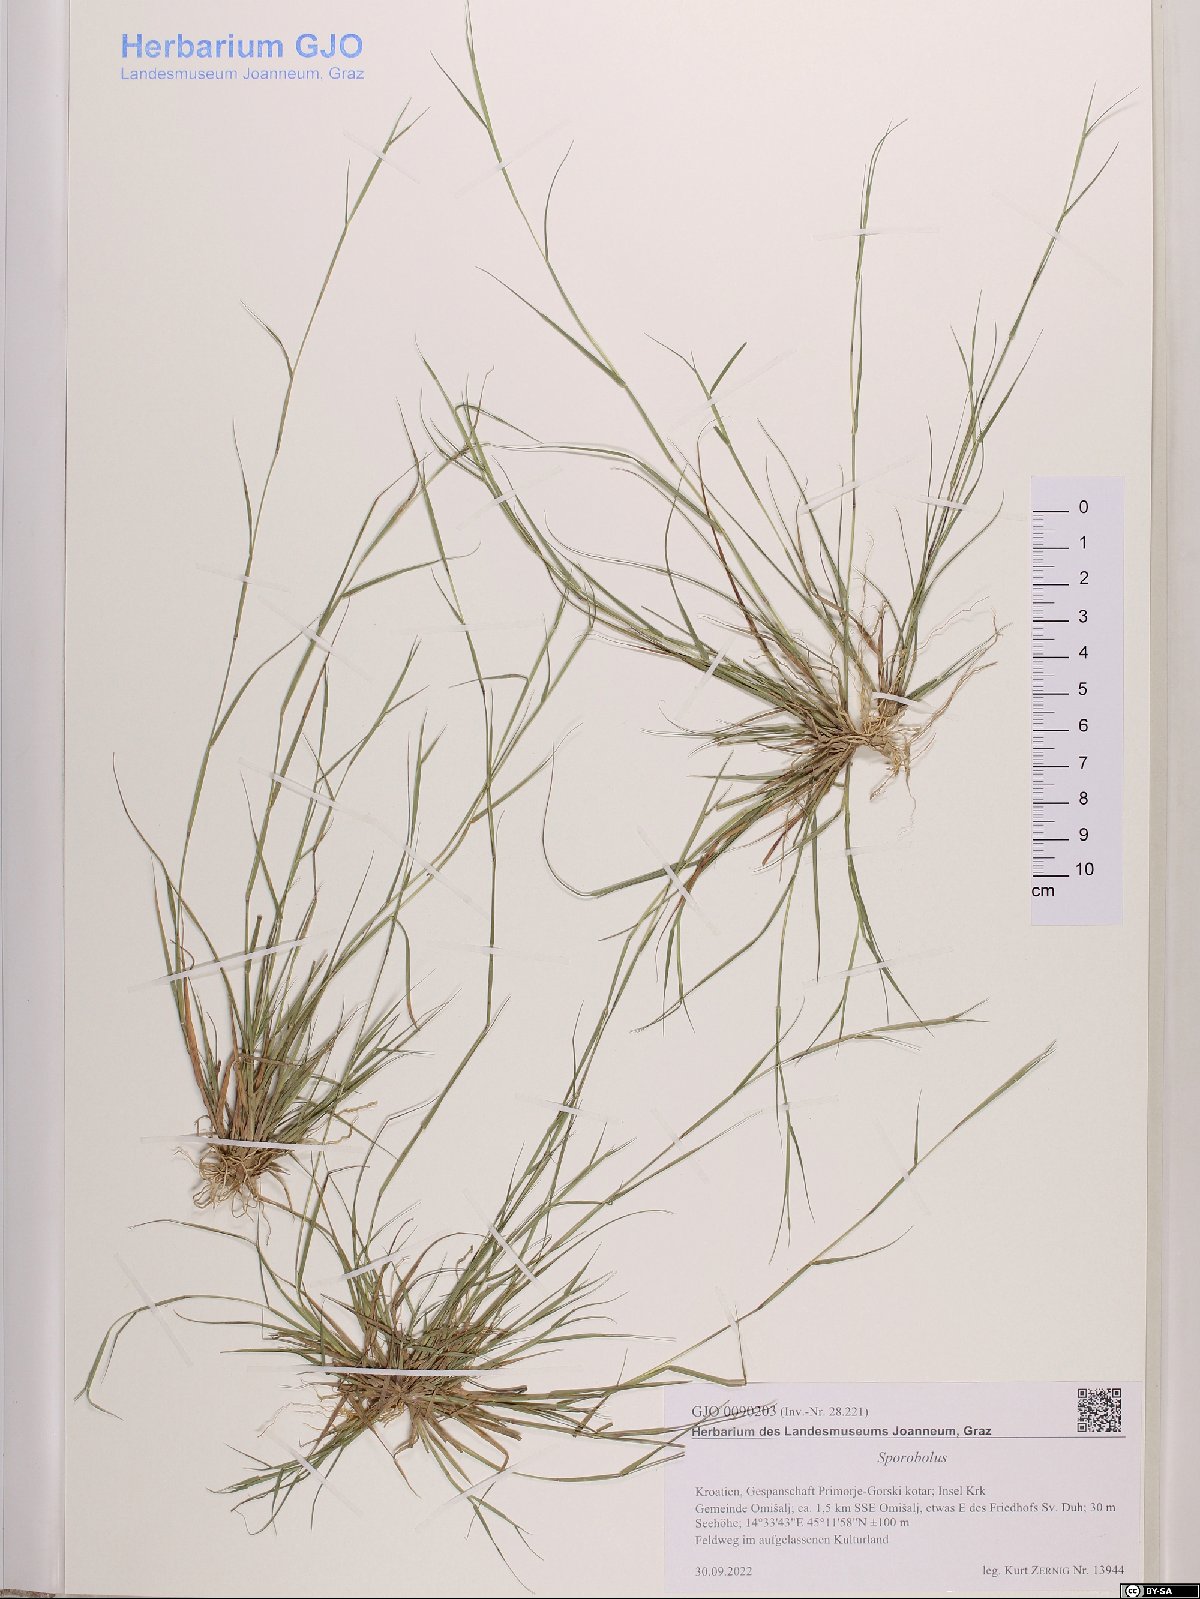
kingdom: Plantae
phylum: Tracheophyta
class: Liliopsida
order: Poales
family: Poaceae
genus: Sporobolus
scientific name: Sporobolus
